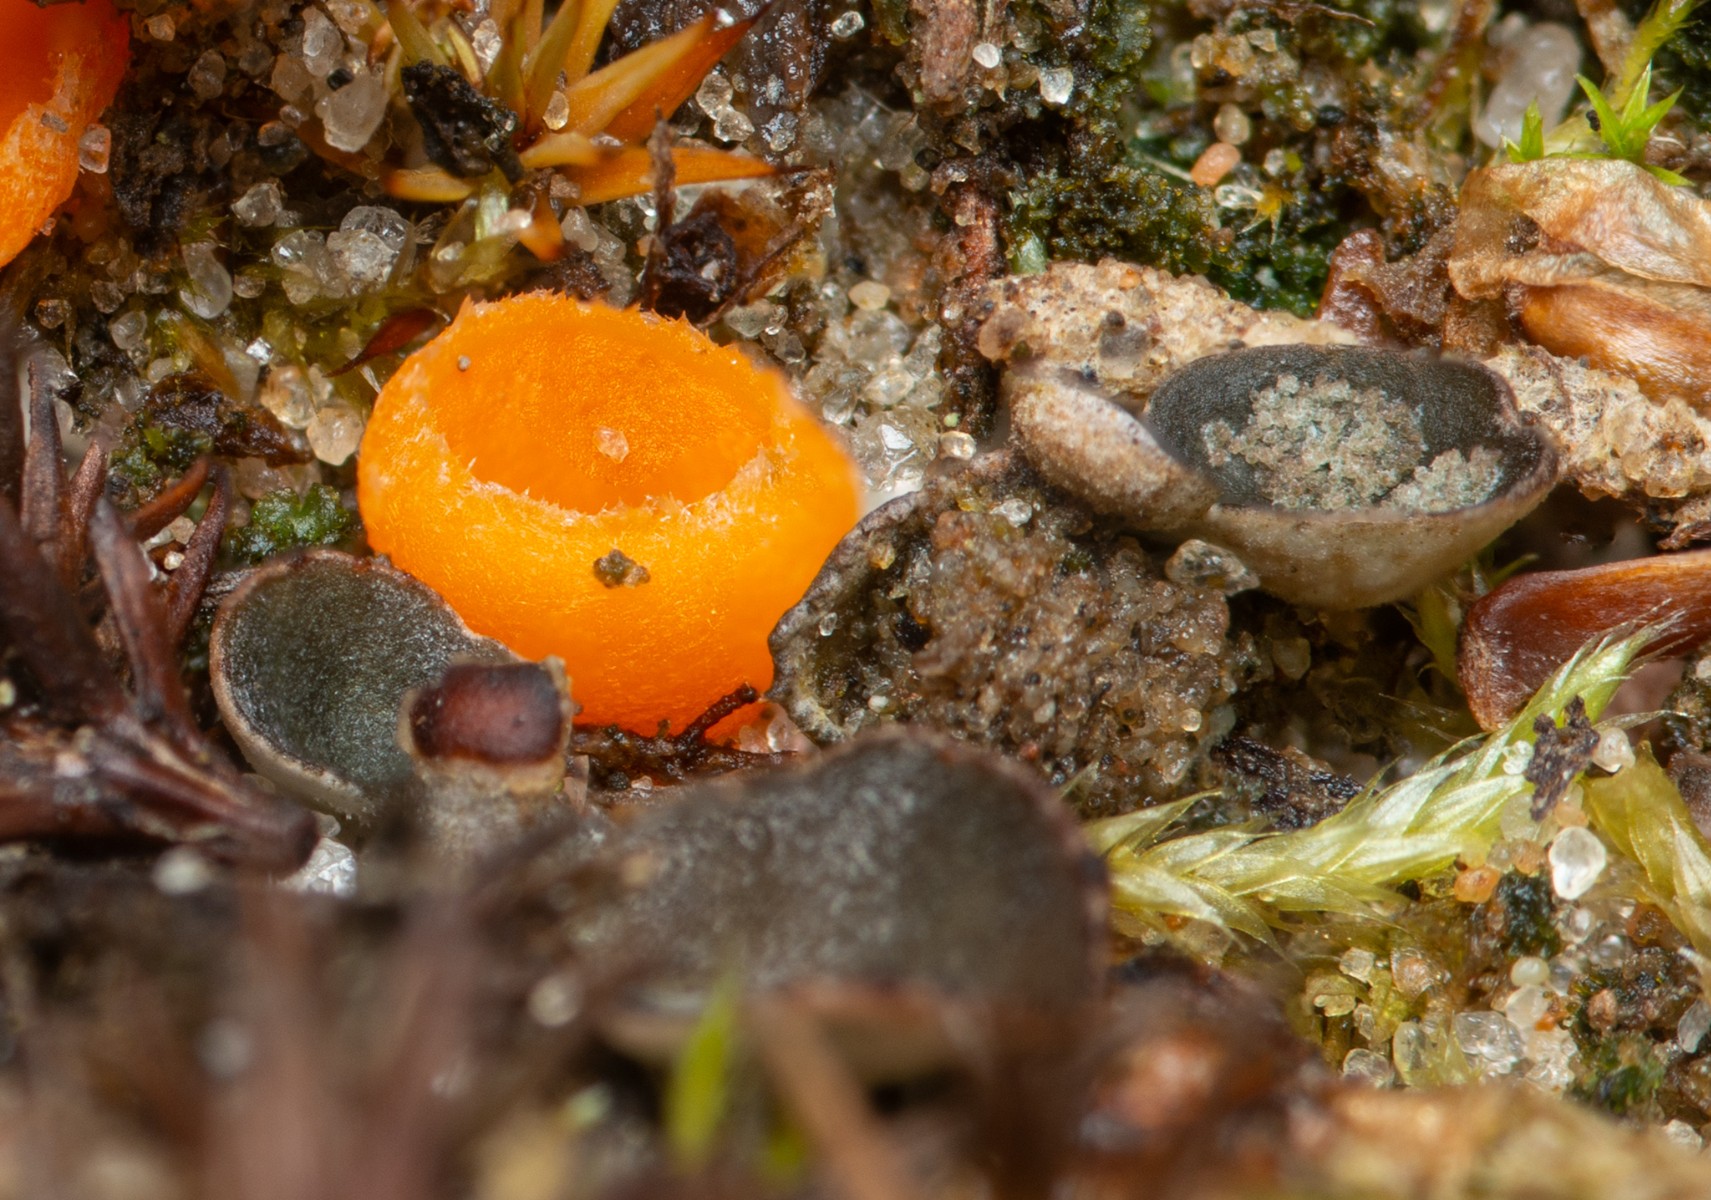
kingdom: Fungi
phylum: Ascomycota
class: Lecanoromycetes
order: Peltigerales
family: Peltigeraceae
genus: Peltigera
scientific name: Peltigera didactyla
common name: liden skjoldlav
